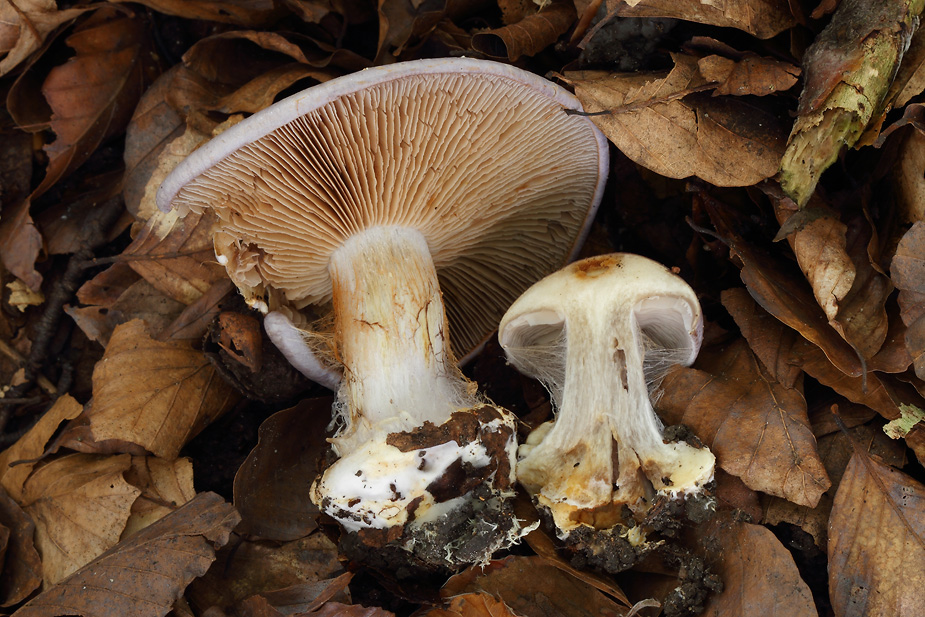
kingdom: Fungi
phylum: Basidiomycota
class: Agaricomycetes
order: Agaricales
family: Cortinariaceae
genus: Cortinarius
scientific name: Cortinarius caerulescens
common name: blåkødet slørhat
